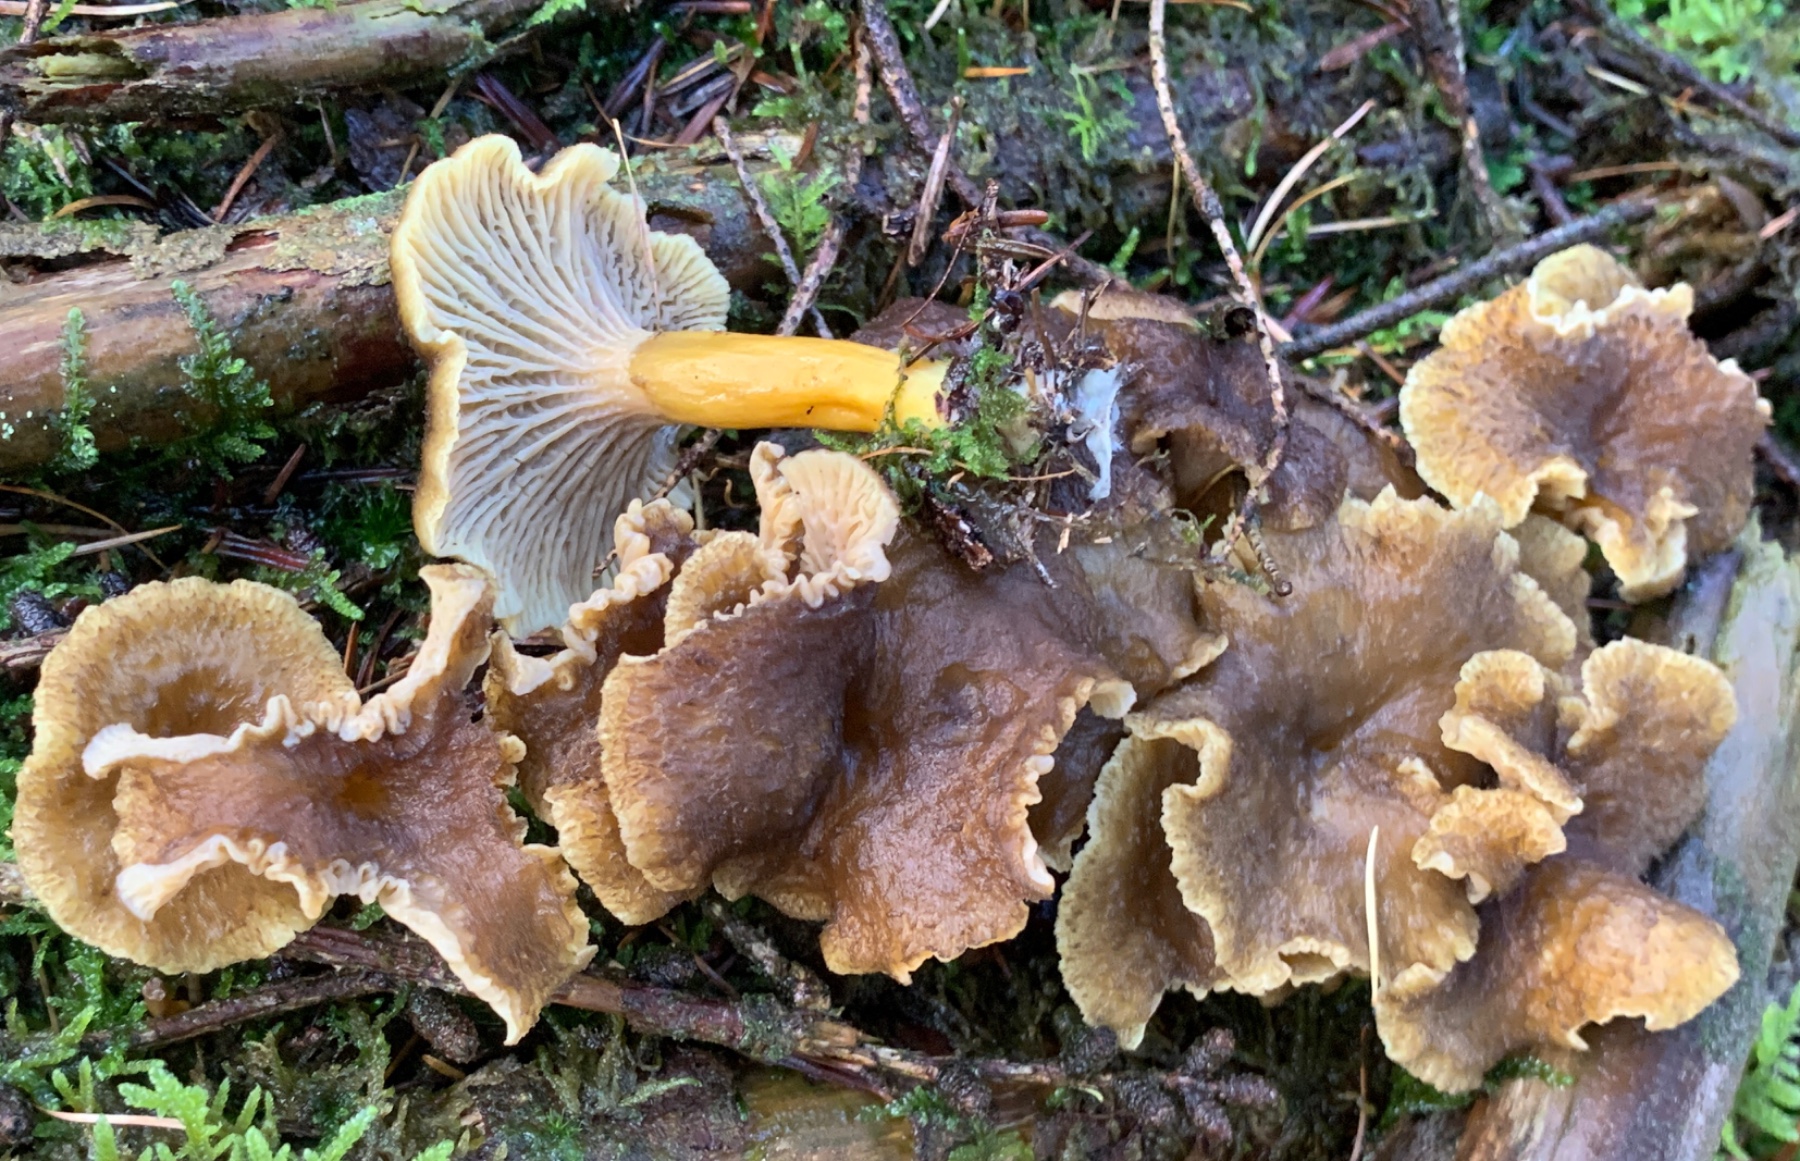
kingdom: Fungi
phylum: Basidiomycota
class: Agaricomycetes
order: Cantharellales
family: Hydnaceae
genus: Craterellus
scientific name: Craterellus tubaeformis
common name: tragt-kantarel
